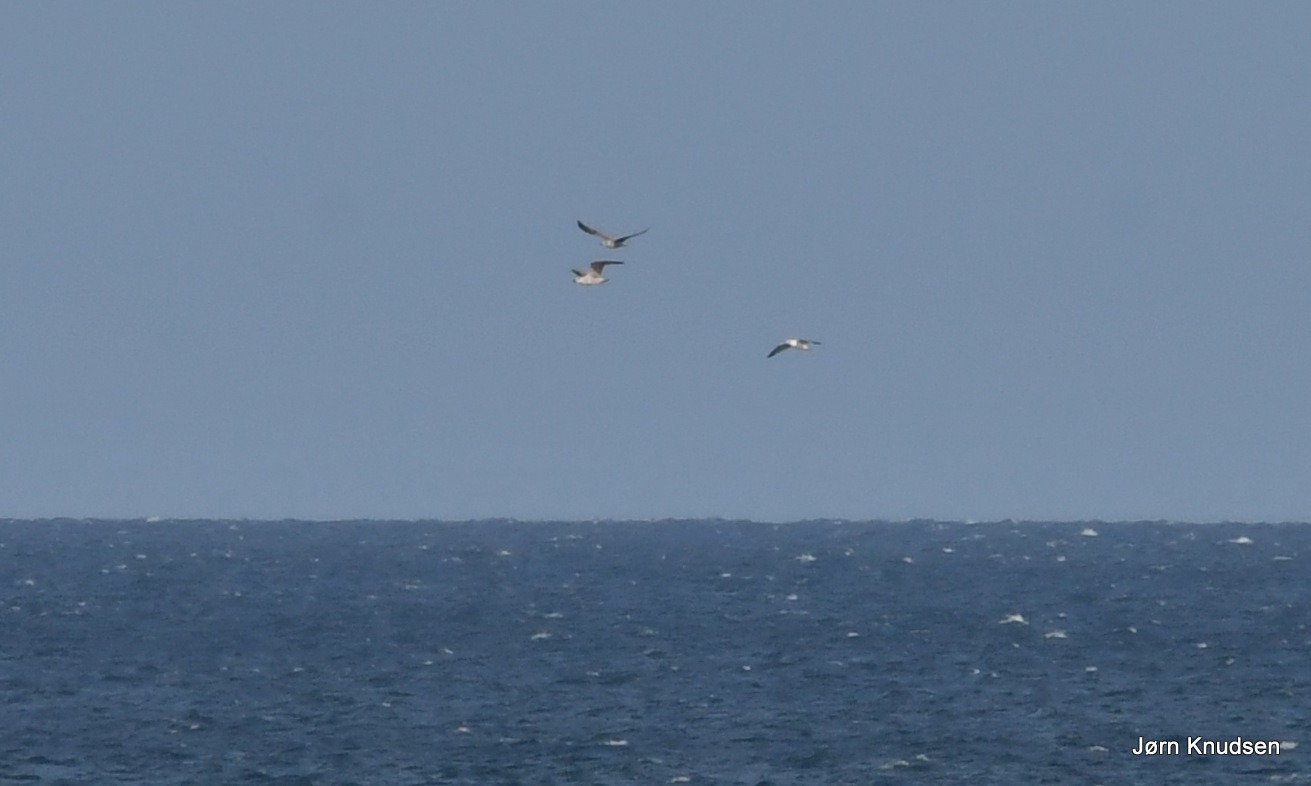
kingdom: Animalia
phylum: Chordata
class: Aves
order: Charadriiformes
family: Laridae
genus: Larus
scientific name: Larus argentatus
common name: Sølvmåge
